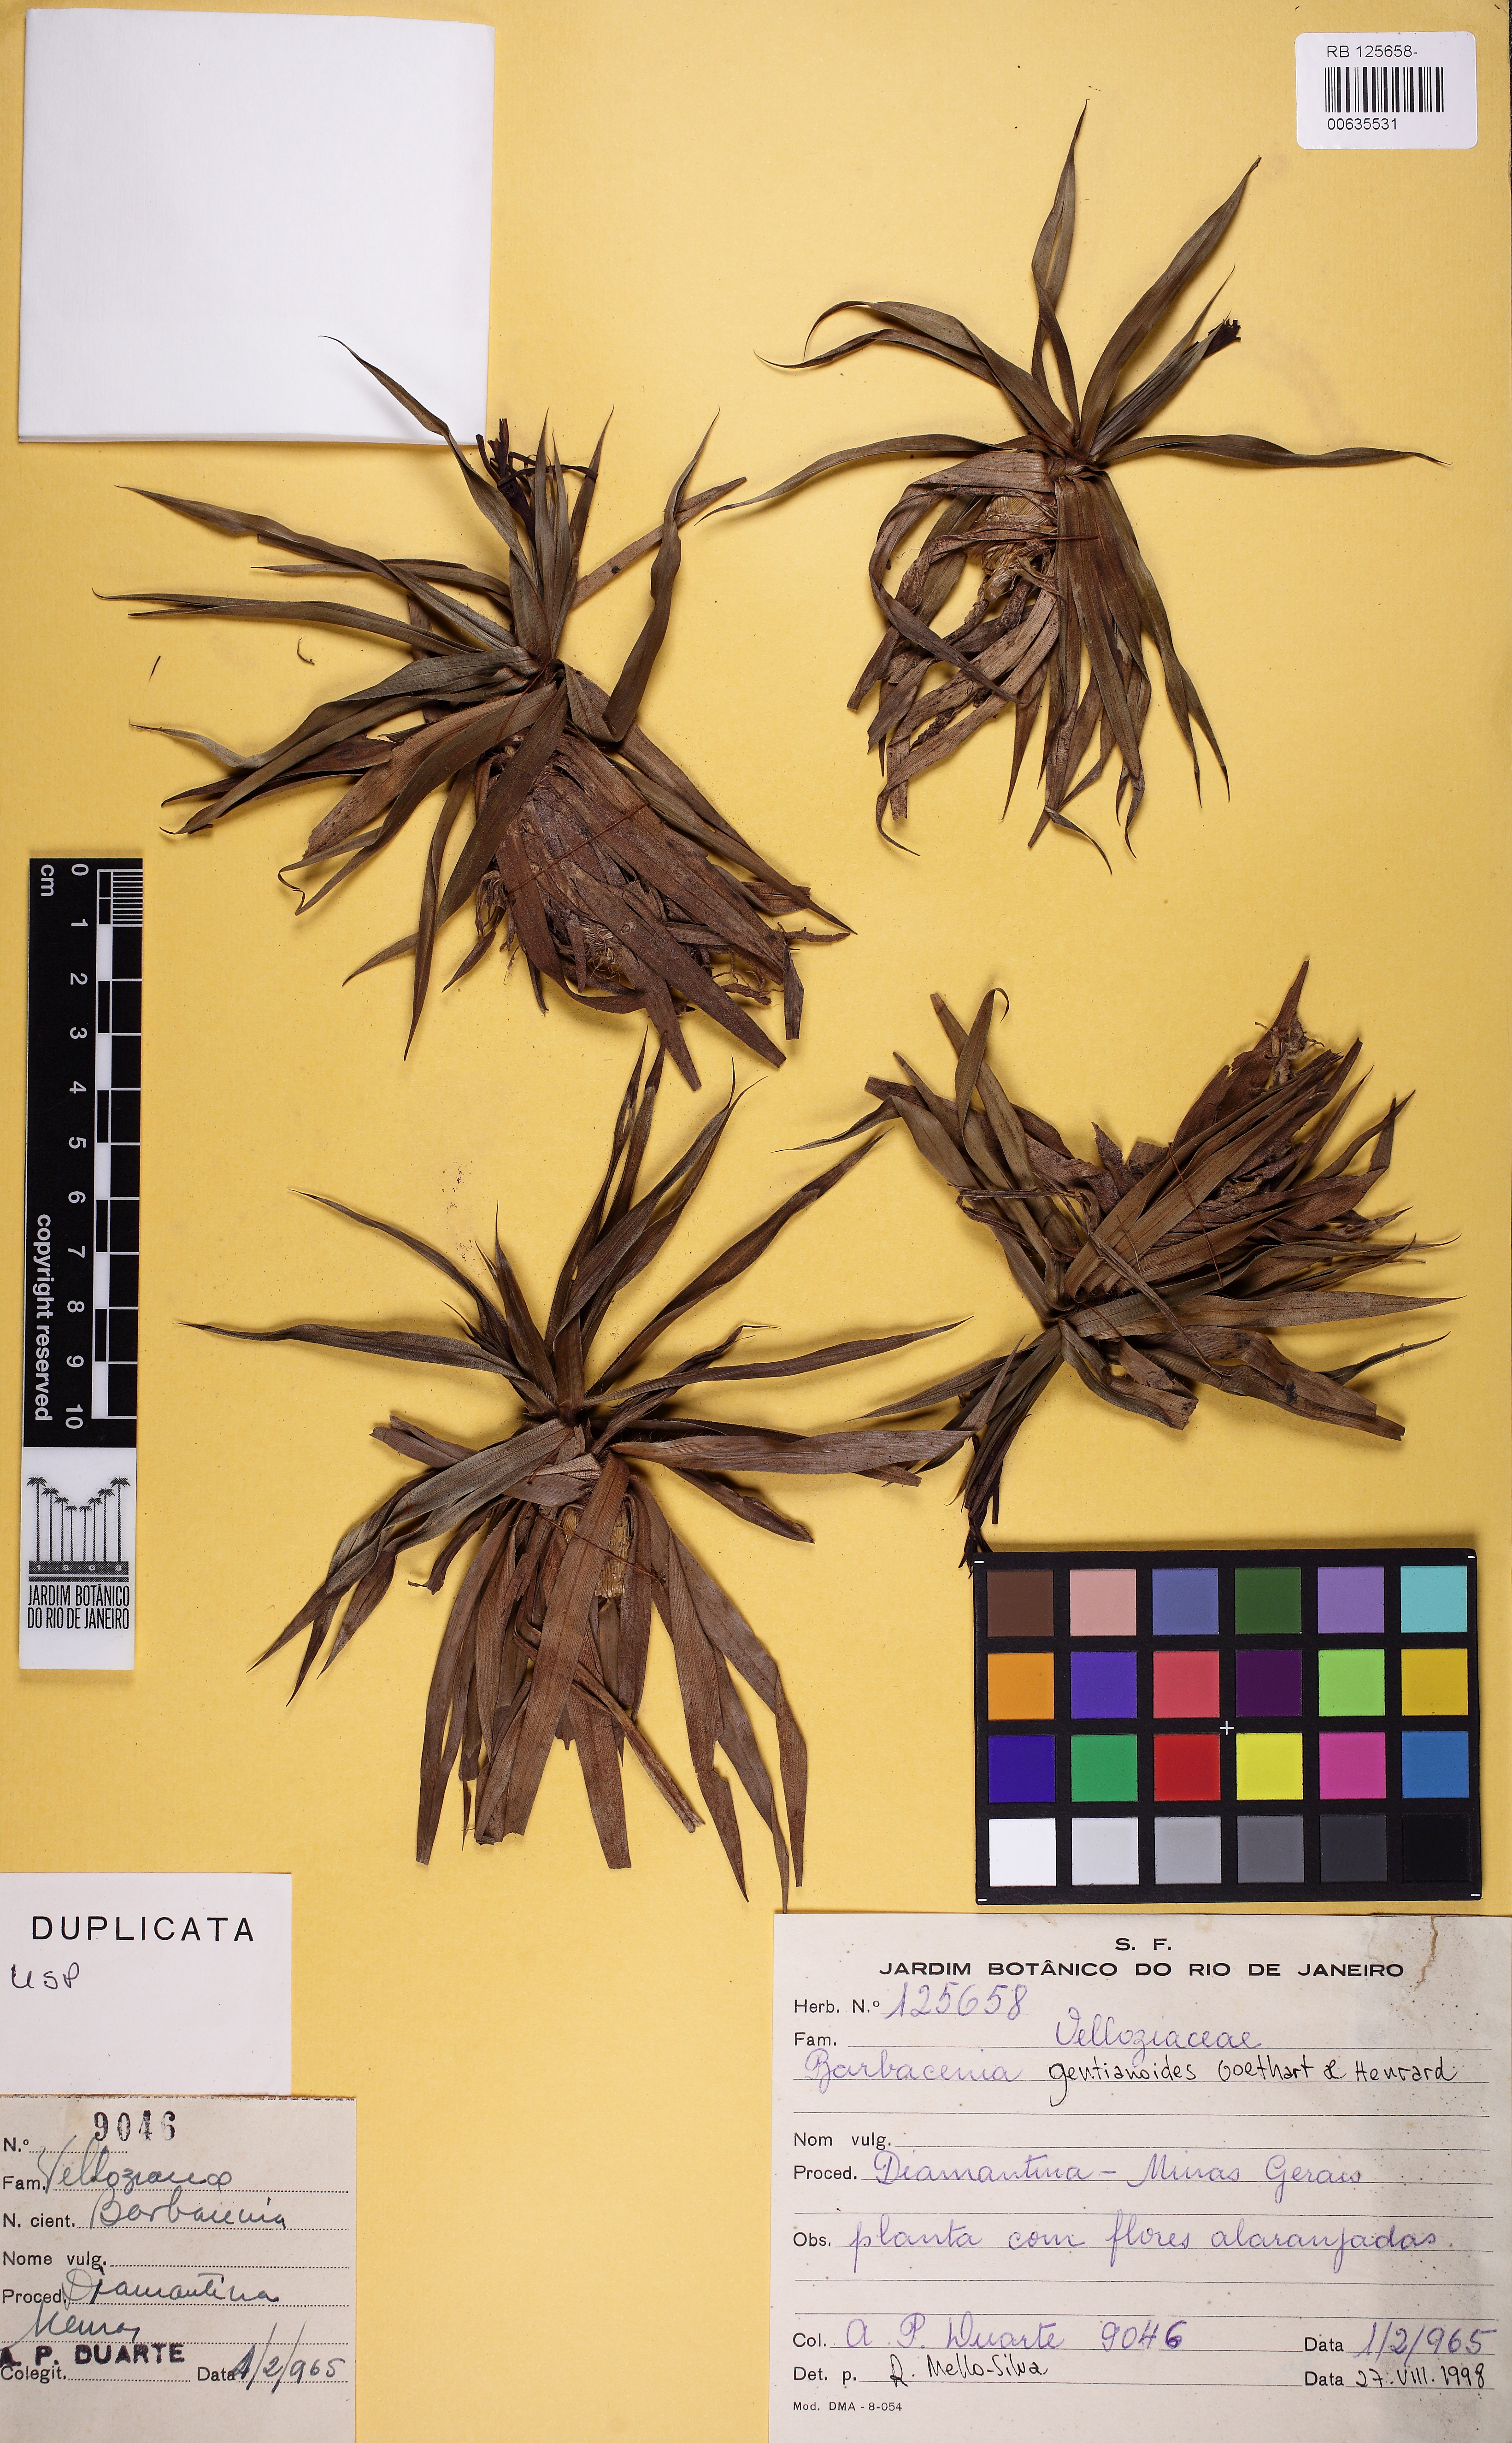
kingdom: Plantae
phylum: Tracheophyta
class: Liliopsida
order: Pandanales
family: Velloziaceae
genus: Barbacenia
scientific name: Barbacenia gentianoides
